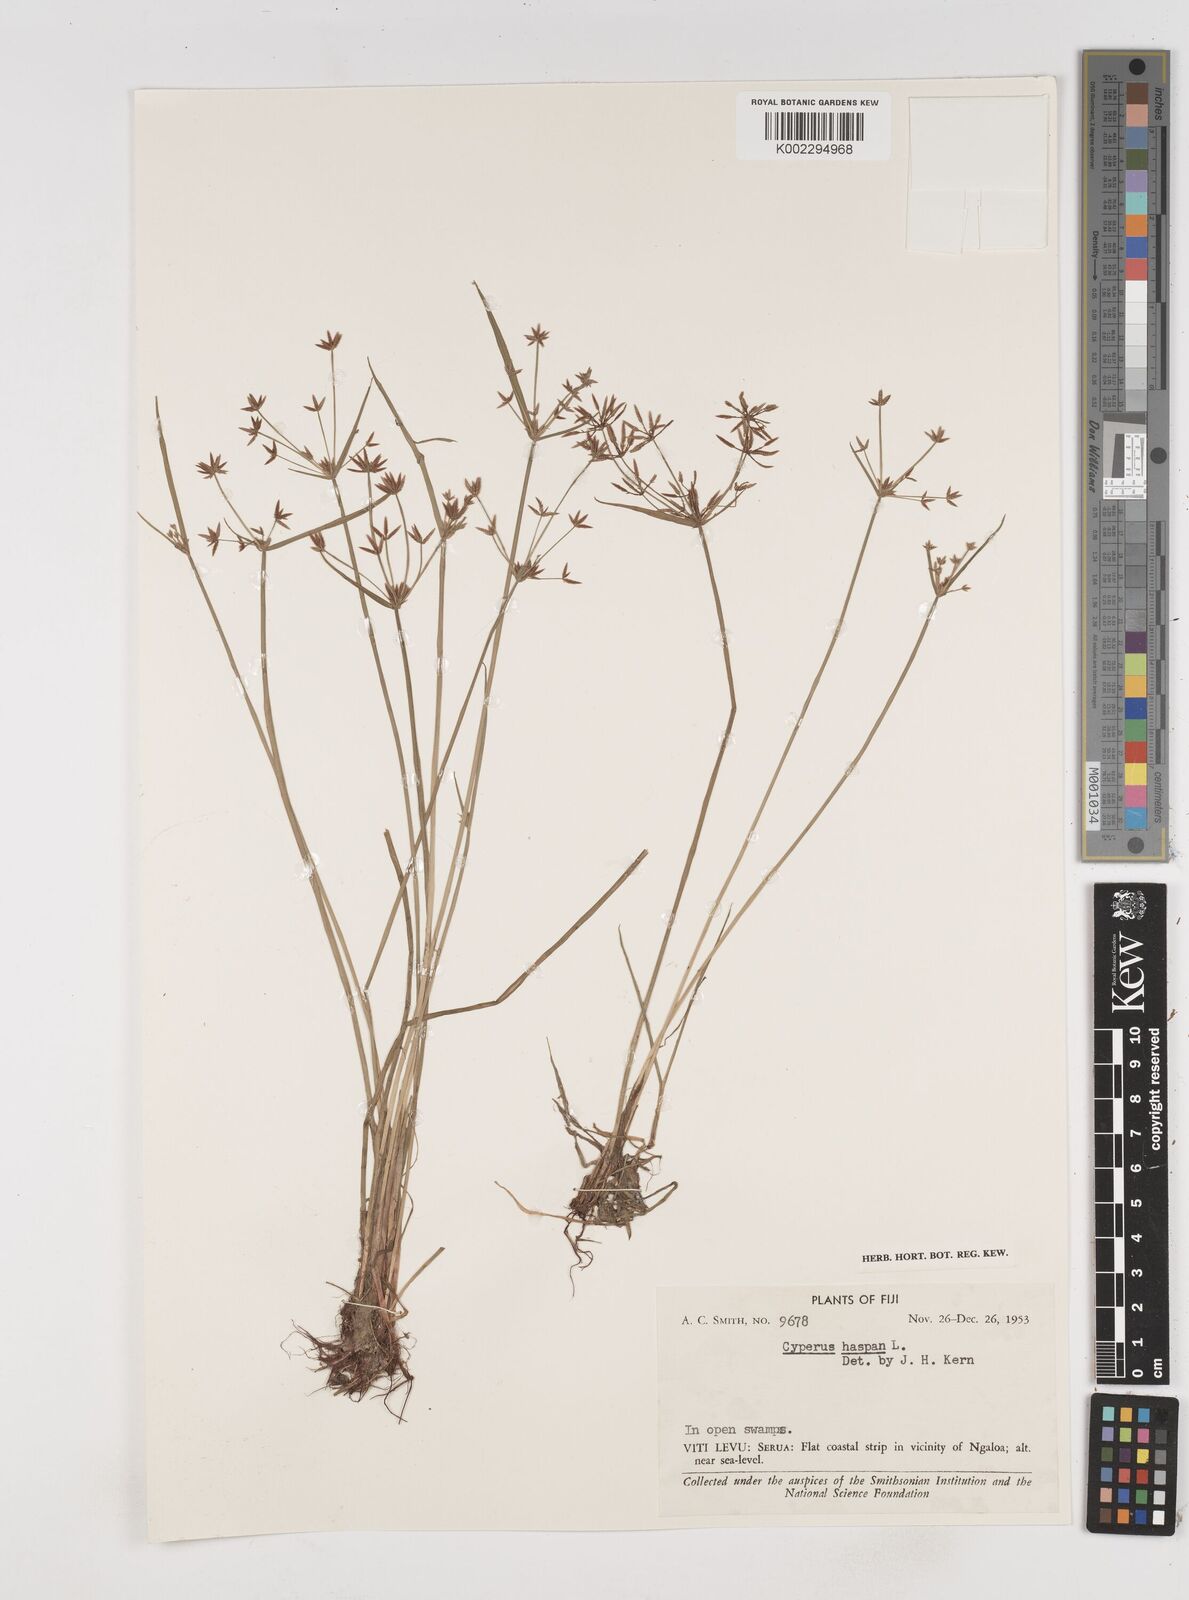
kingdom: Plantae
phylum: Tracheophyta
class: Liliopsida
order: Poales
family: Cyperaceae
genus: Cyperus
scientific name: Cyperus haspan
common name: Haspan flatsedge
